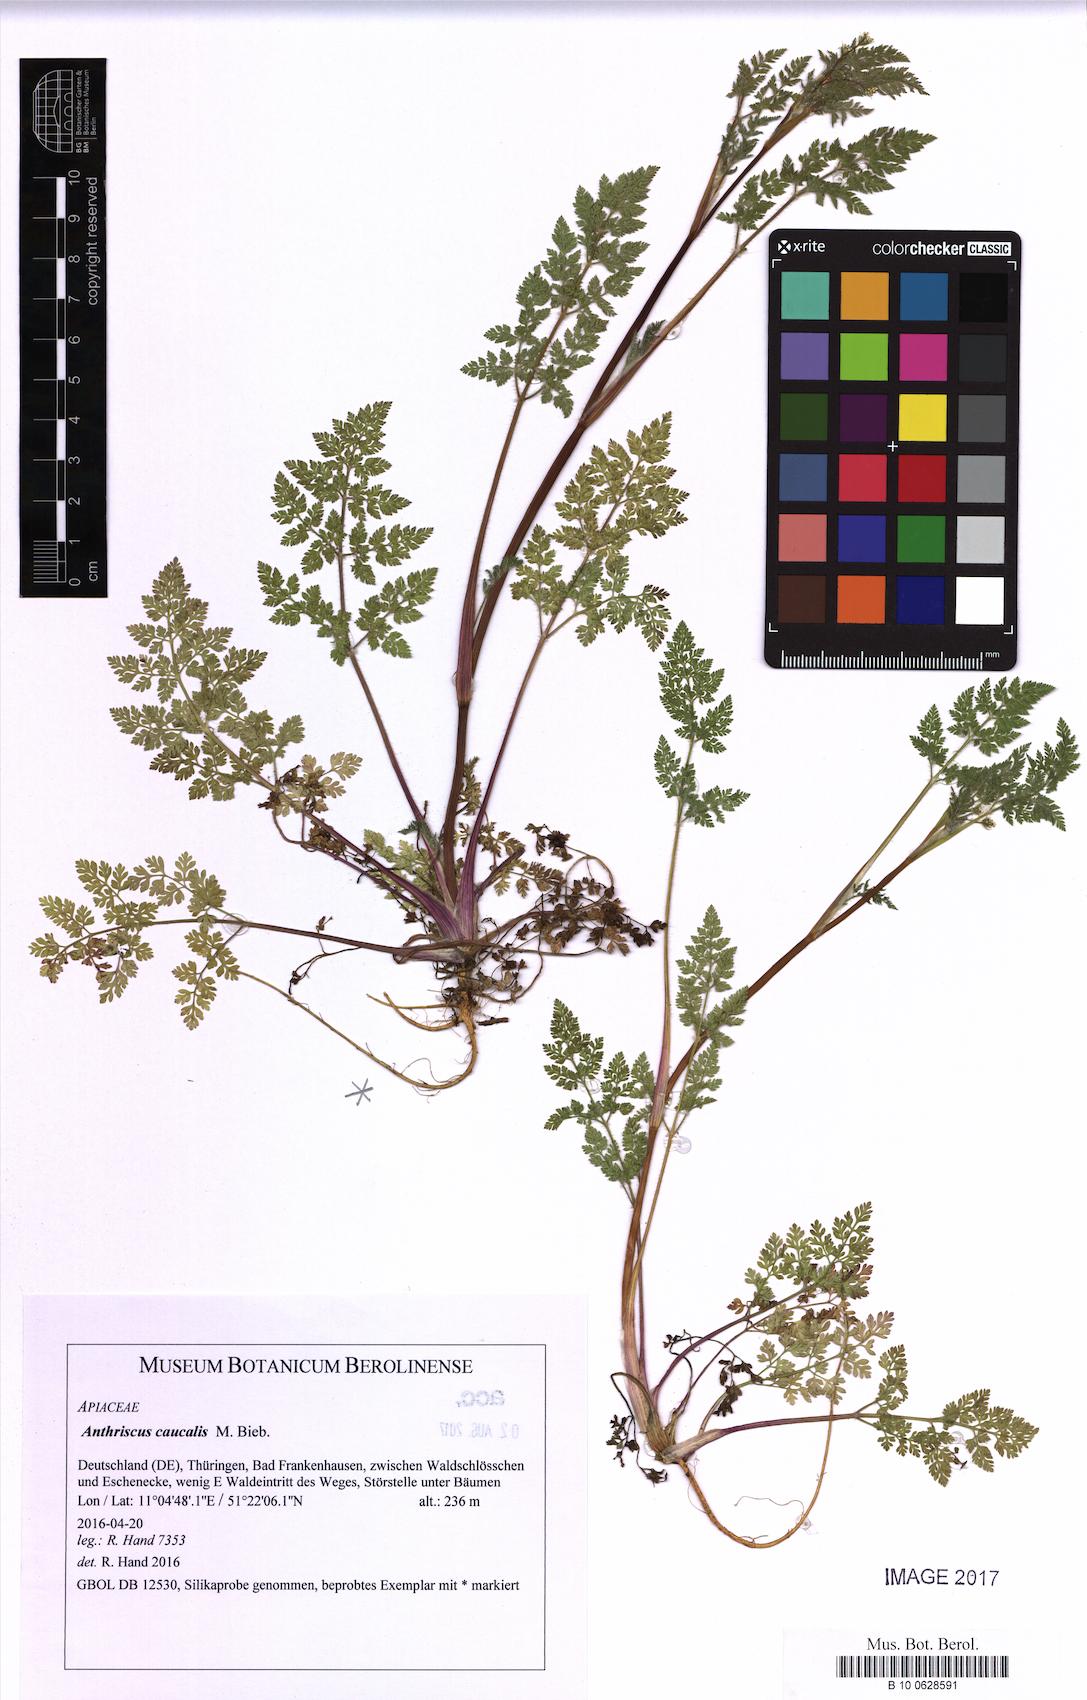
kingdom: Plantae
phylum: Tracheophyta
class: Magnoliopsida
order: Apiales
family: Apiaceae
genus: Anthriscus
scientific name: Anthriscus caucalis
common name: Bur chervil
